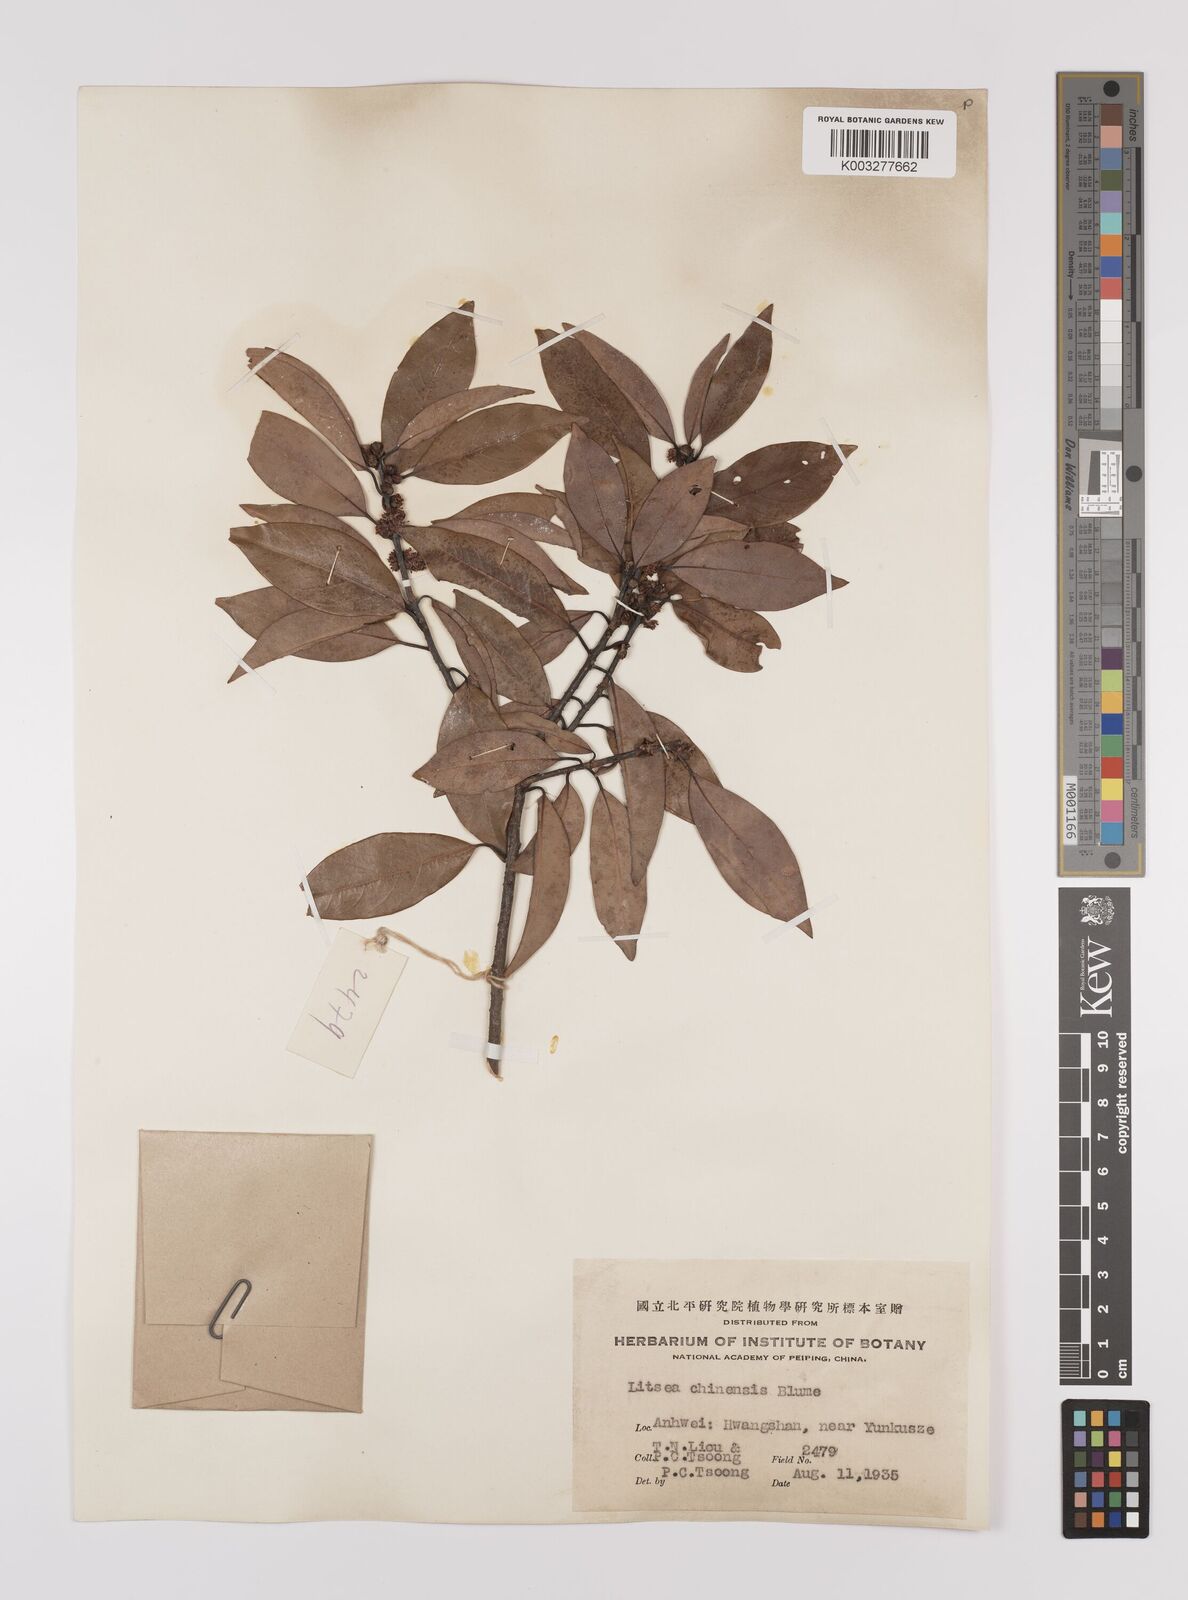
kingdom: Plantae
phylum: Tracheophyta
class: Magnoliopsida
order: Laurales
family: Lauraceae
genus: Litsea
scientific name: Litsea rotundifolia
